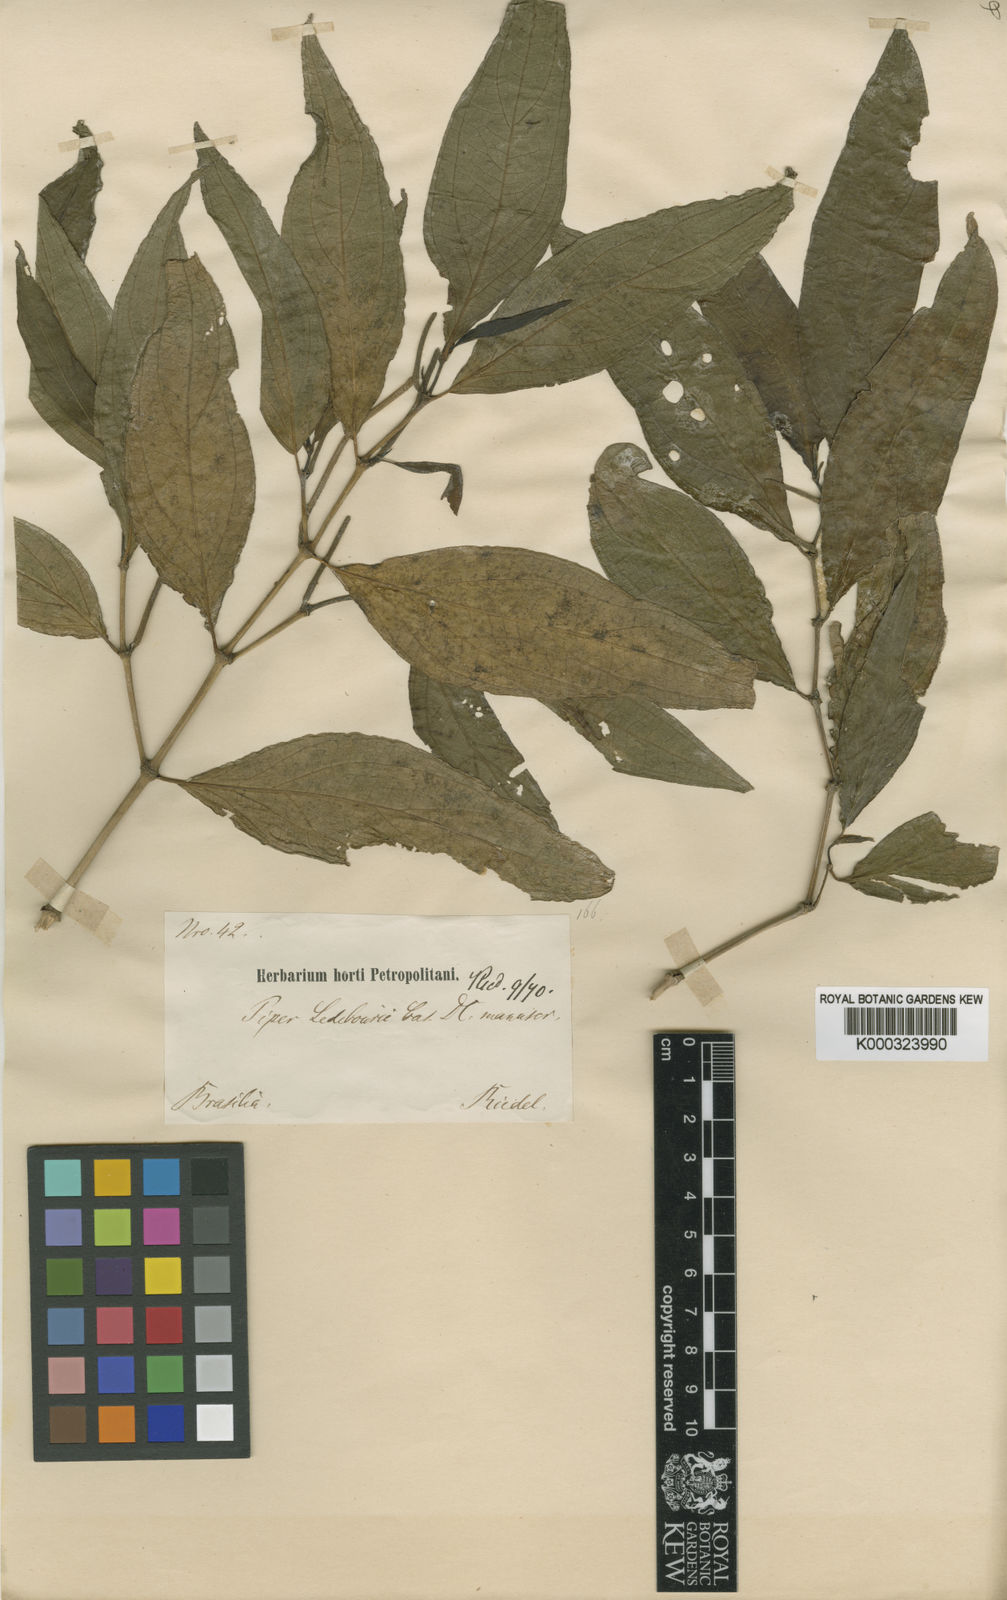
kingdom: Plantae
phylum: Tracheophyta
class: Magnoliopsida
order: Piperales
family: Piperaceae
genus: Piper
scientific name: Piper secundum
